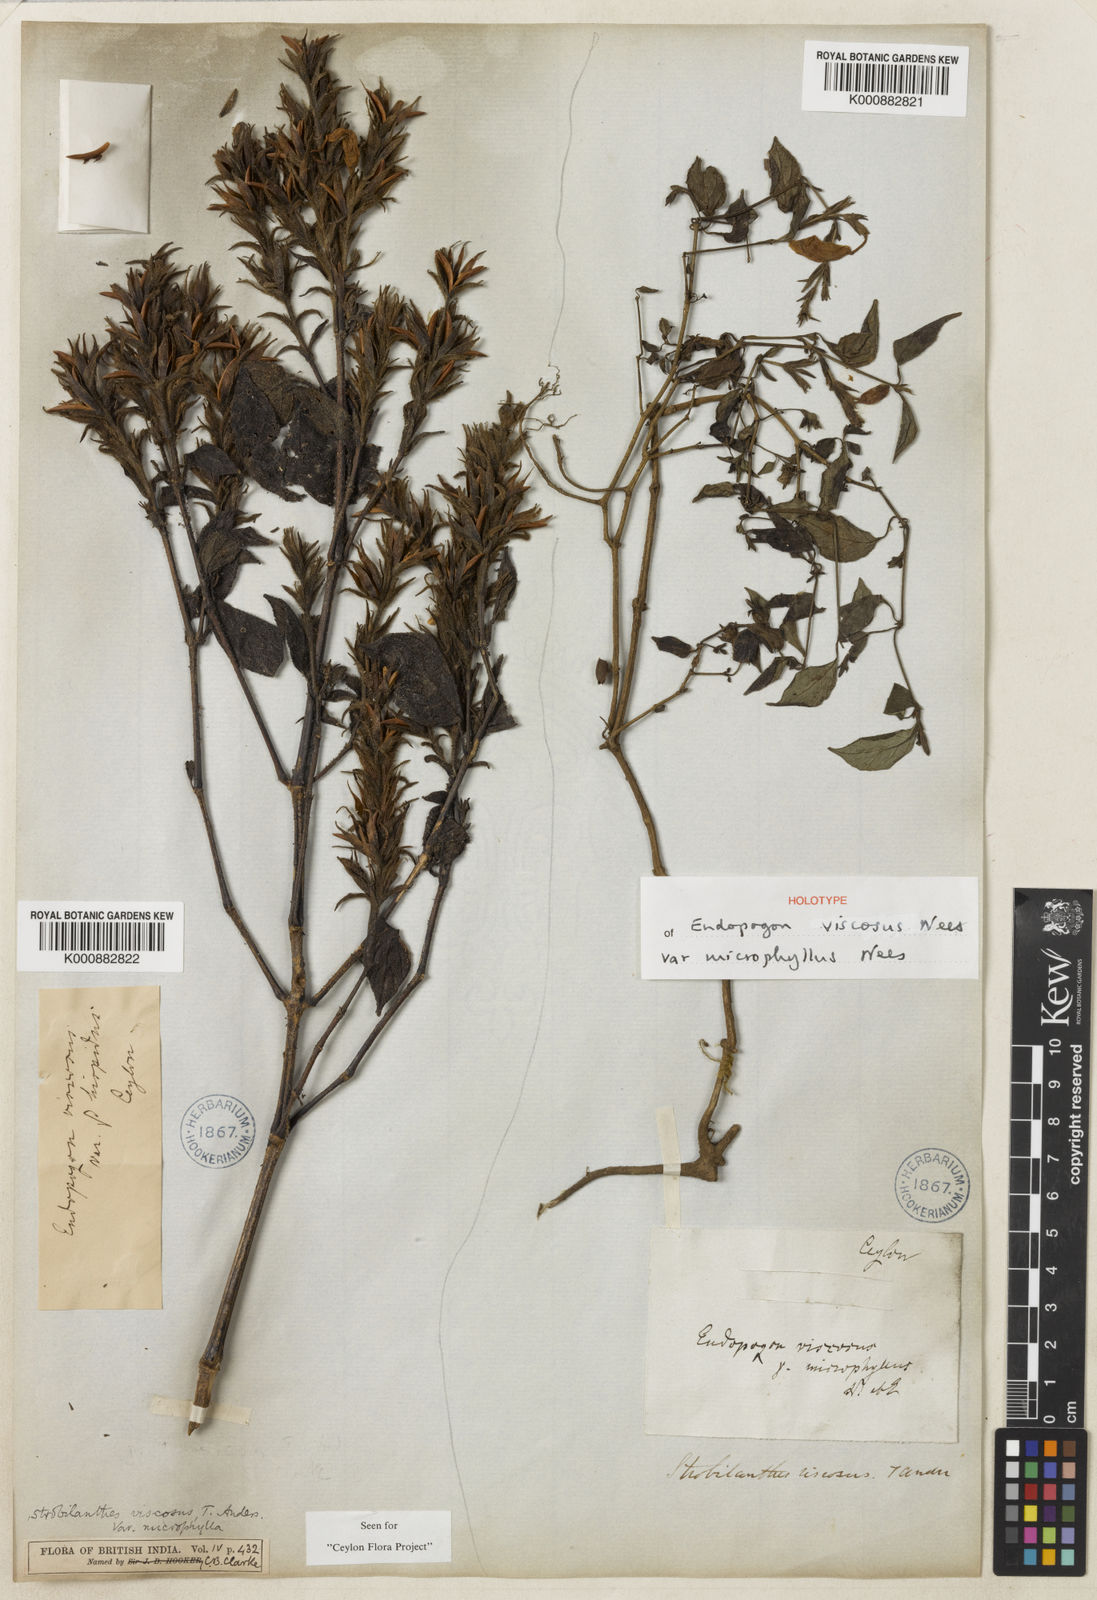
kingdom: Plantae
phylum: Tracheophyta
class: Magnoliopsida
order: Lamiales
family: Acanthaceae
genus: Strobilanthes
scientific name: Strobilanthes viscosa
